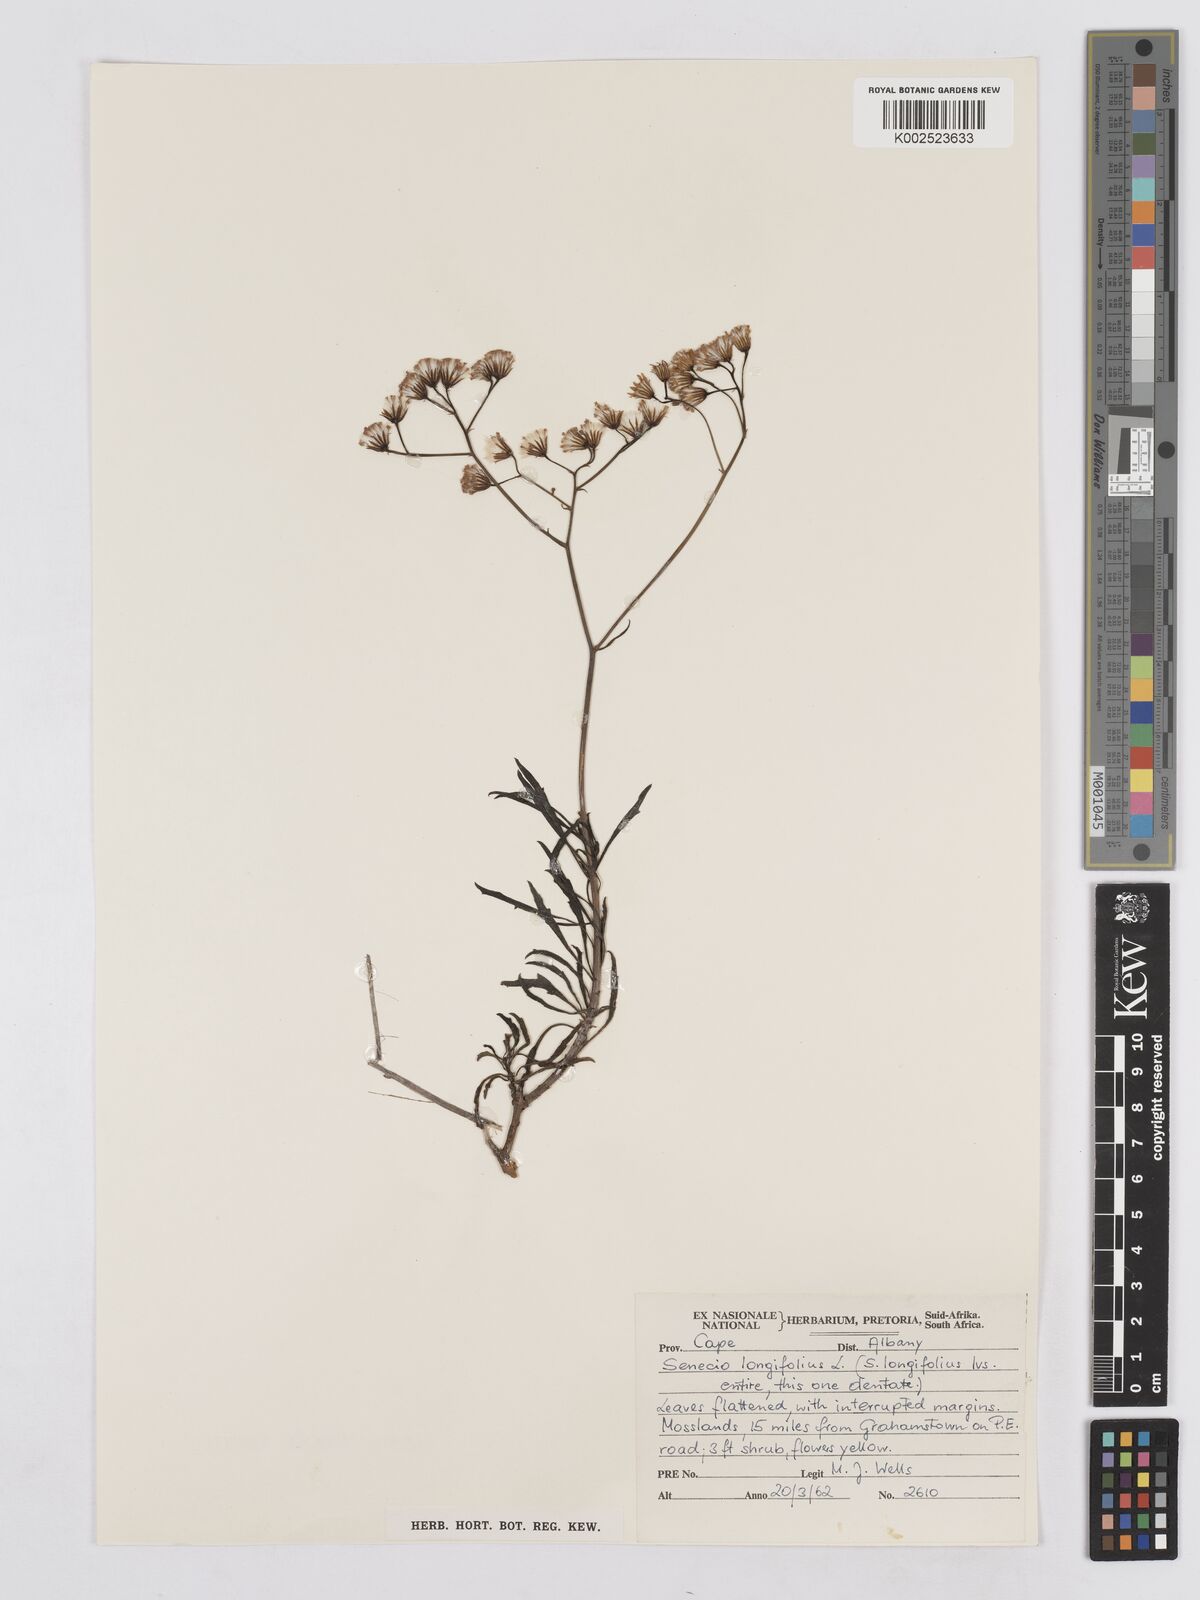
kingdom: Plantae
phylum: Tracheophyta
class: Magnoliopsida
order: Asterales
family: Asteraceae
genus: Senecio
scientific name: Senecio linifolius
